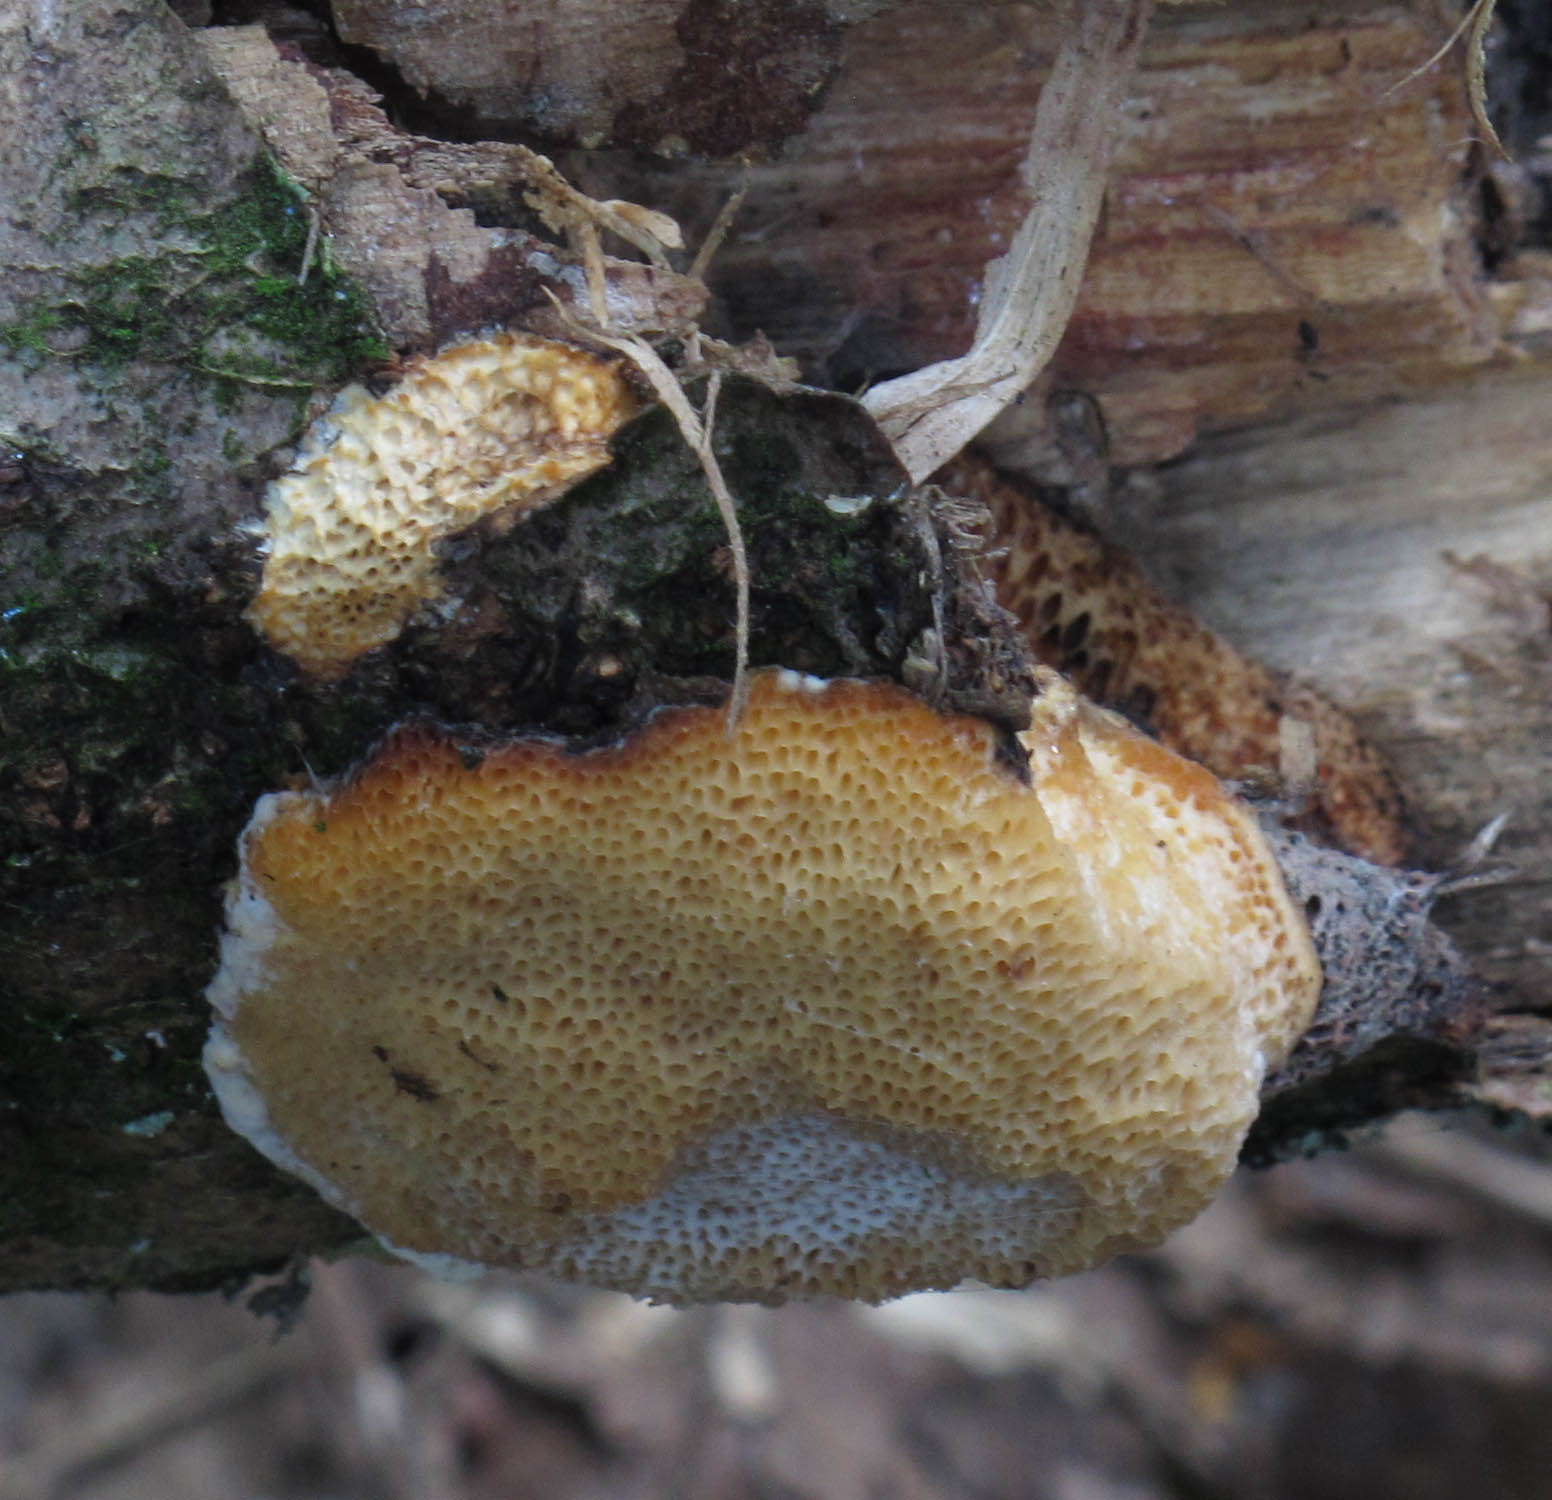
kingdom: Fungi
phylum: Basidiomycota
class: Agaricomycetes
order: Polyporales
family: Polyporaceae
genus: Szczepkamyces
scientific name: Szczepkamyces campestris
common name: hasselporesvamp
